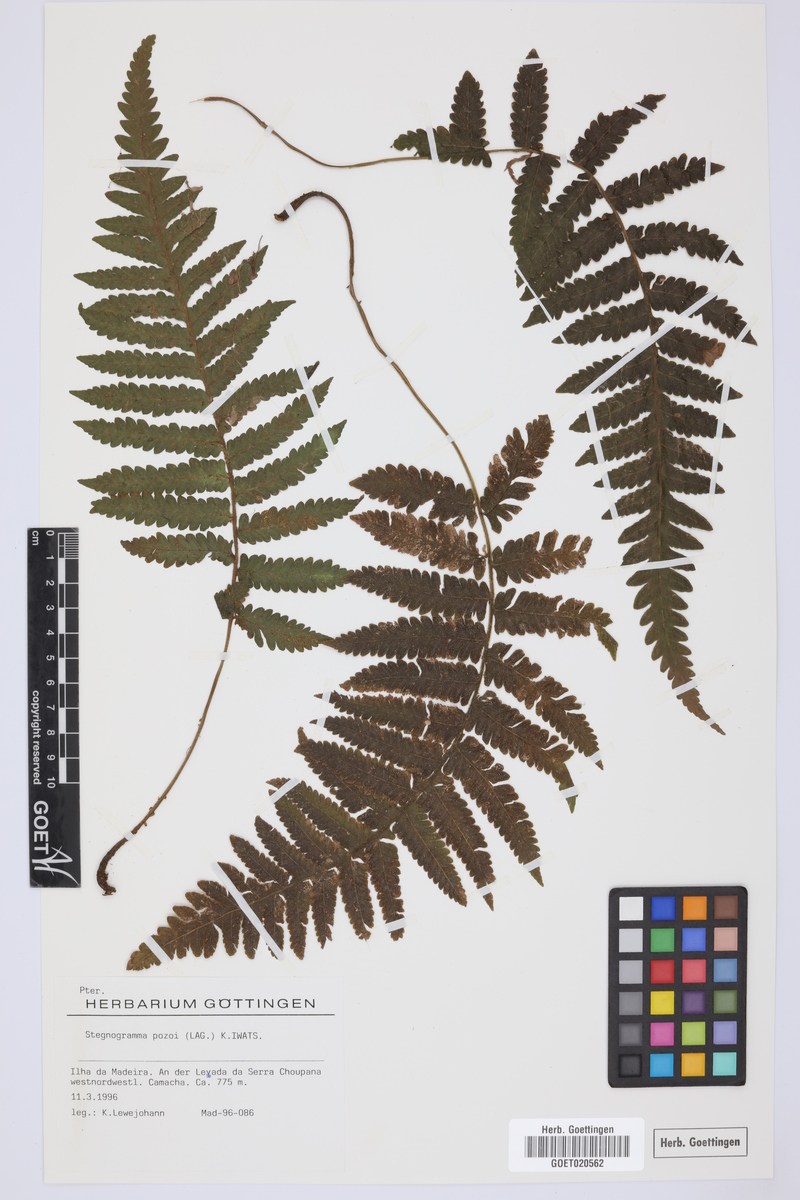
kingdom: Plantae
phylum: Tracheophyta
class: Polypodiopsida
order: Polypodiales
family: Thelypteridaceae
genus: Leptogramma
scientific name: Leptogramma pozoi
